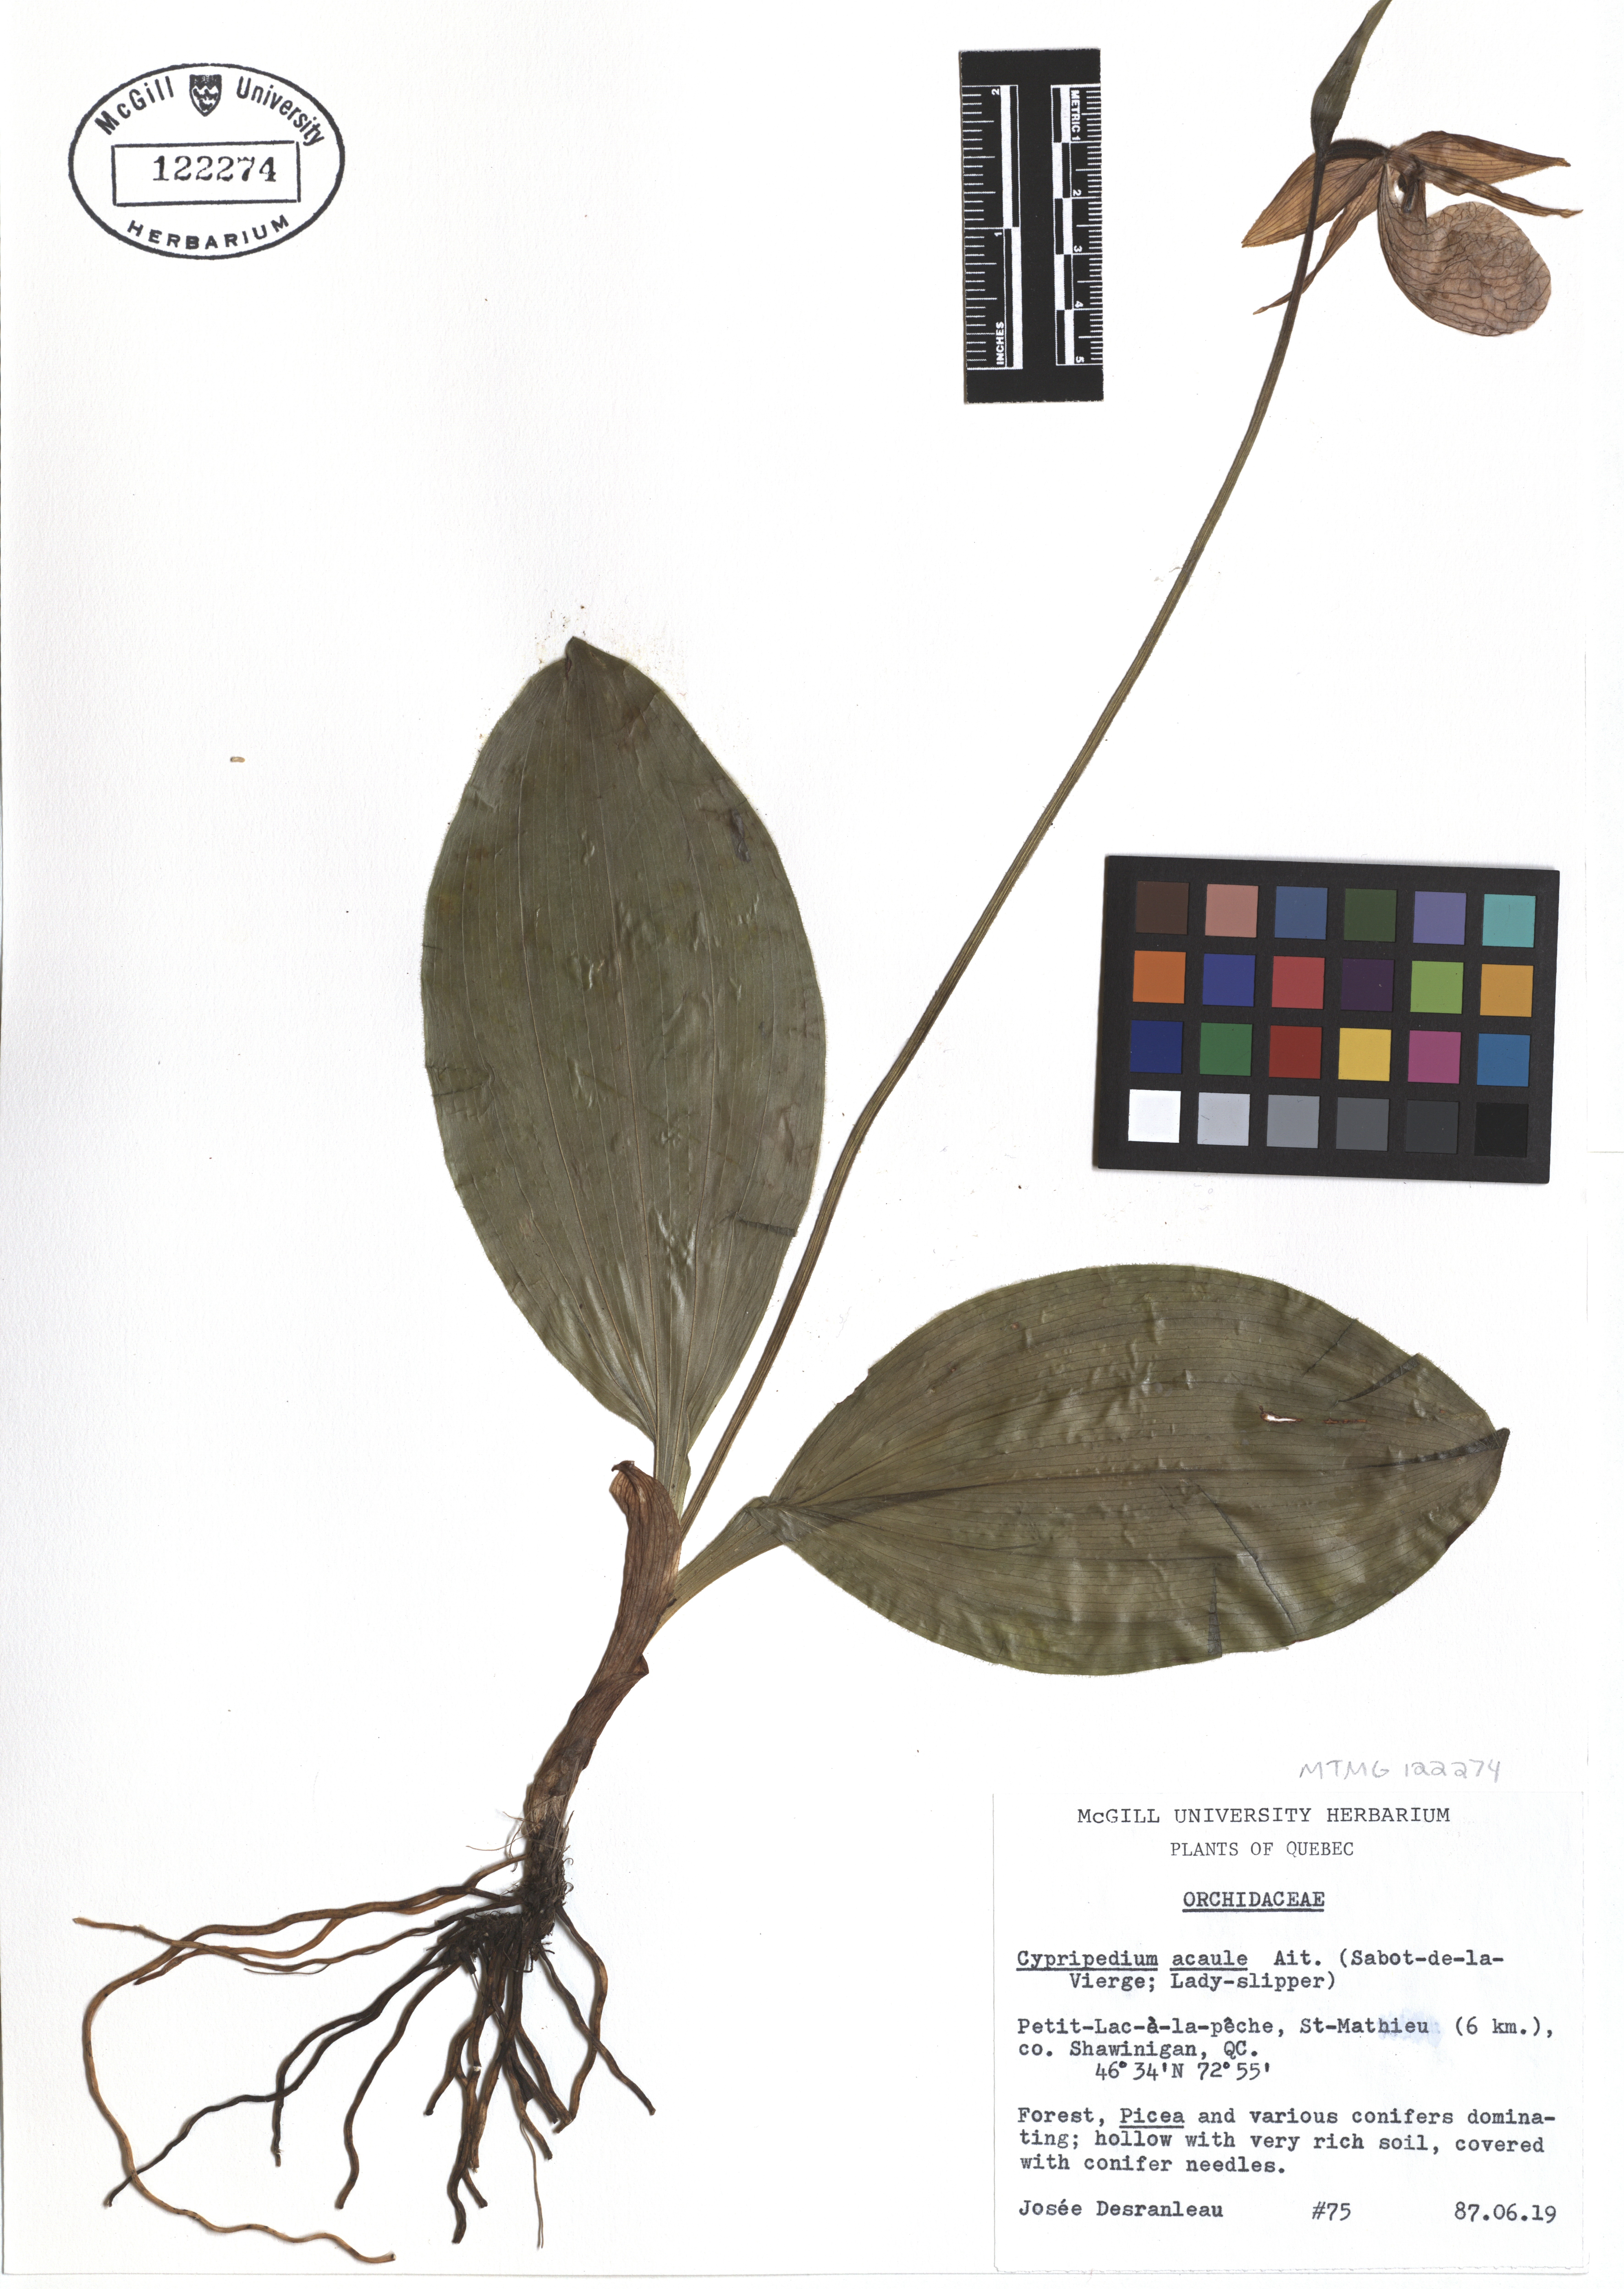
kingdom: Plantae
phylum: Tracheophyta
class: Liliopsida
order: Asparagales
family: Orchidaceae
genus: Cypripedium
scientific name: Cypripedium acaule
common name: Pink lady's-slipper
